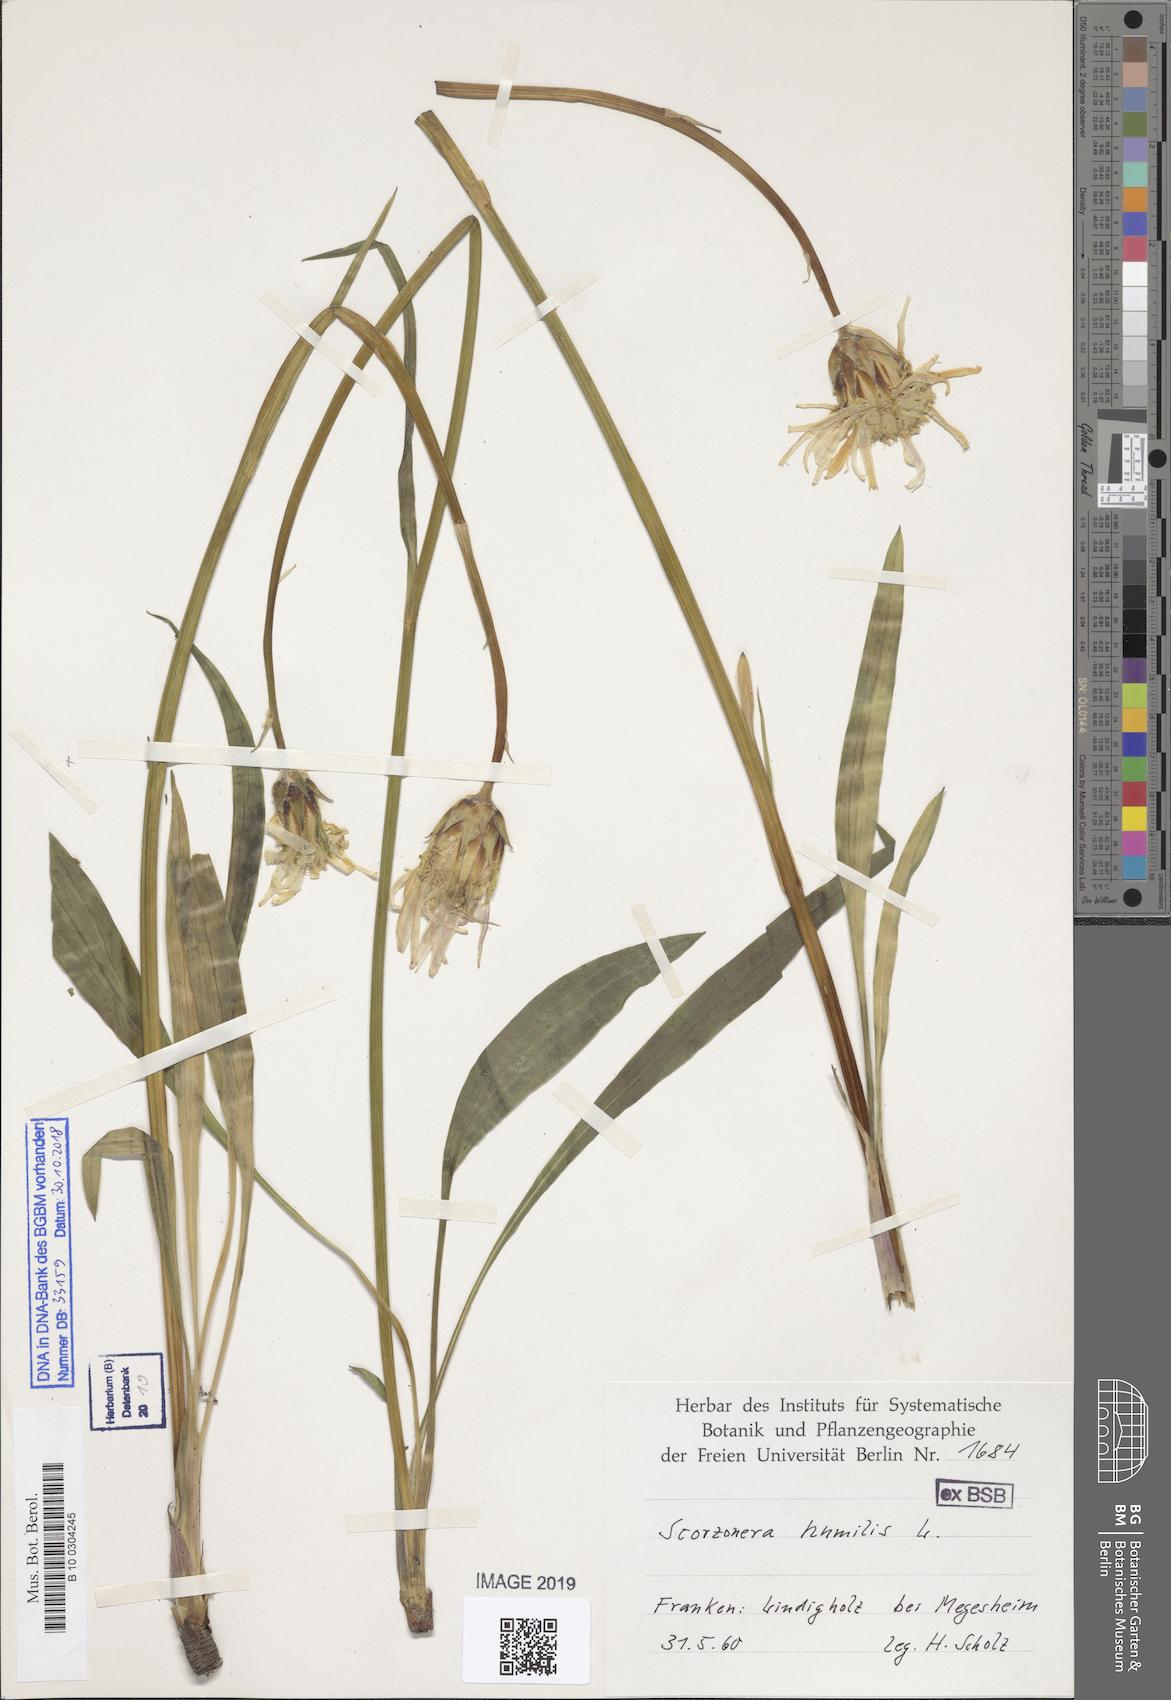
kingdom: Plantae
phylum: Tracheophyta
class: Magnoliopsida
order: Asterales
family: Asteraceae
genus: Scorzonera
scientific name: Scorzonera humilis
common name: Viper's-grass
